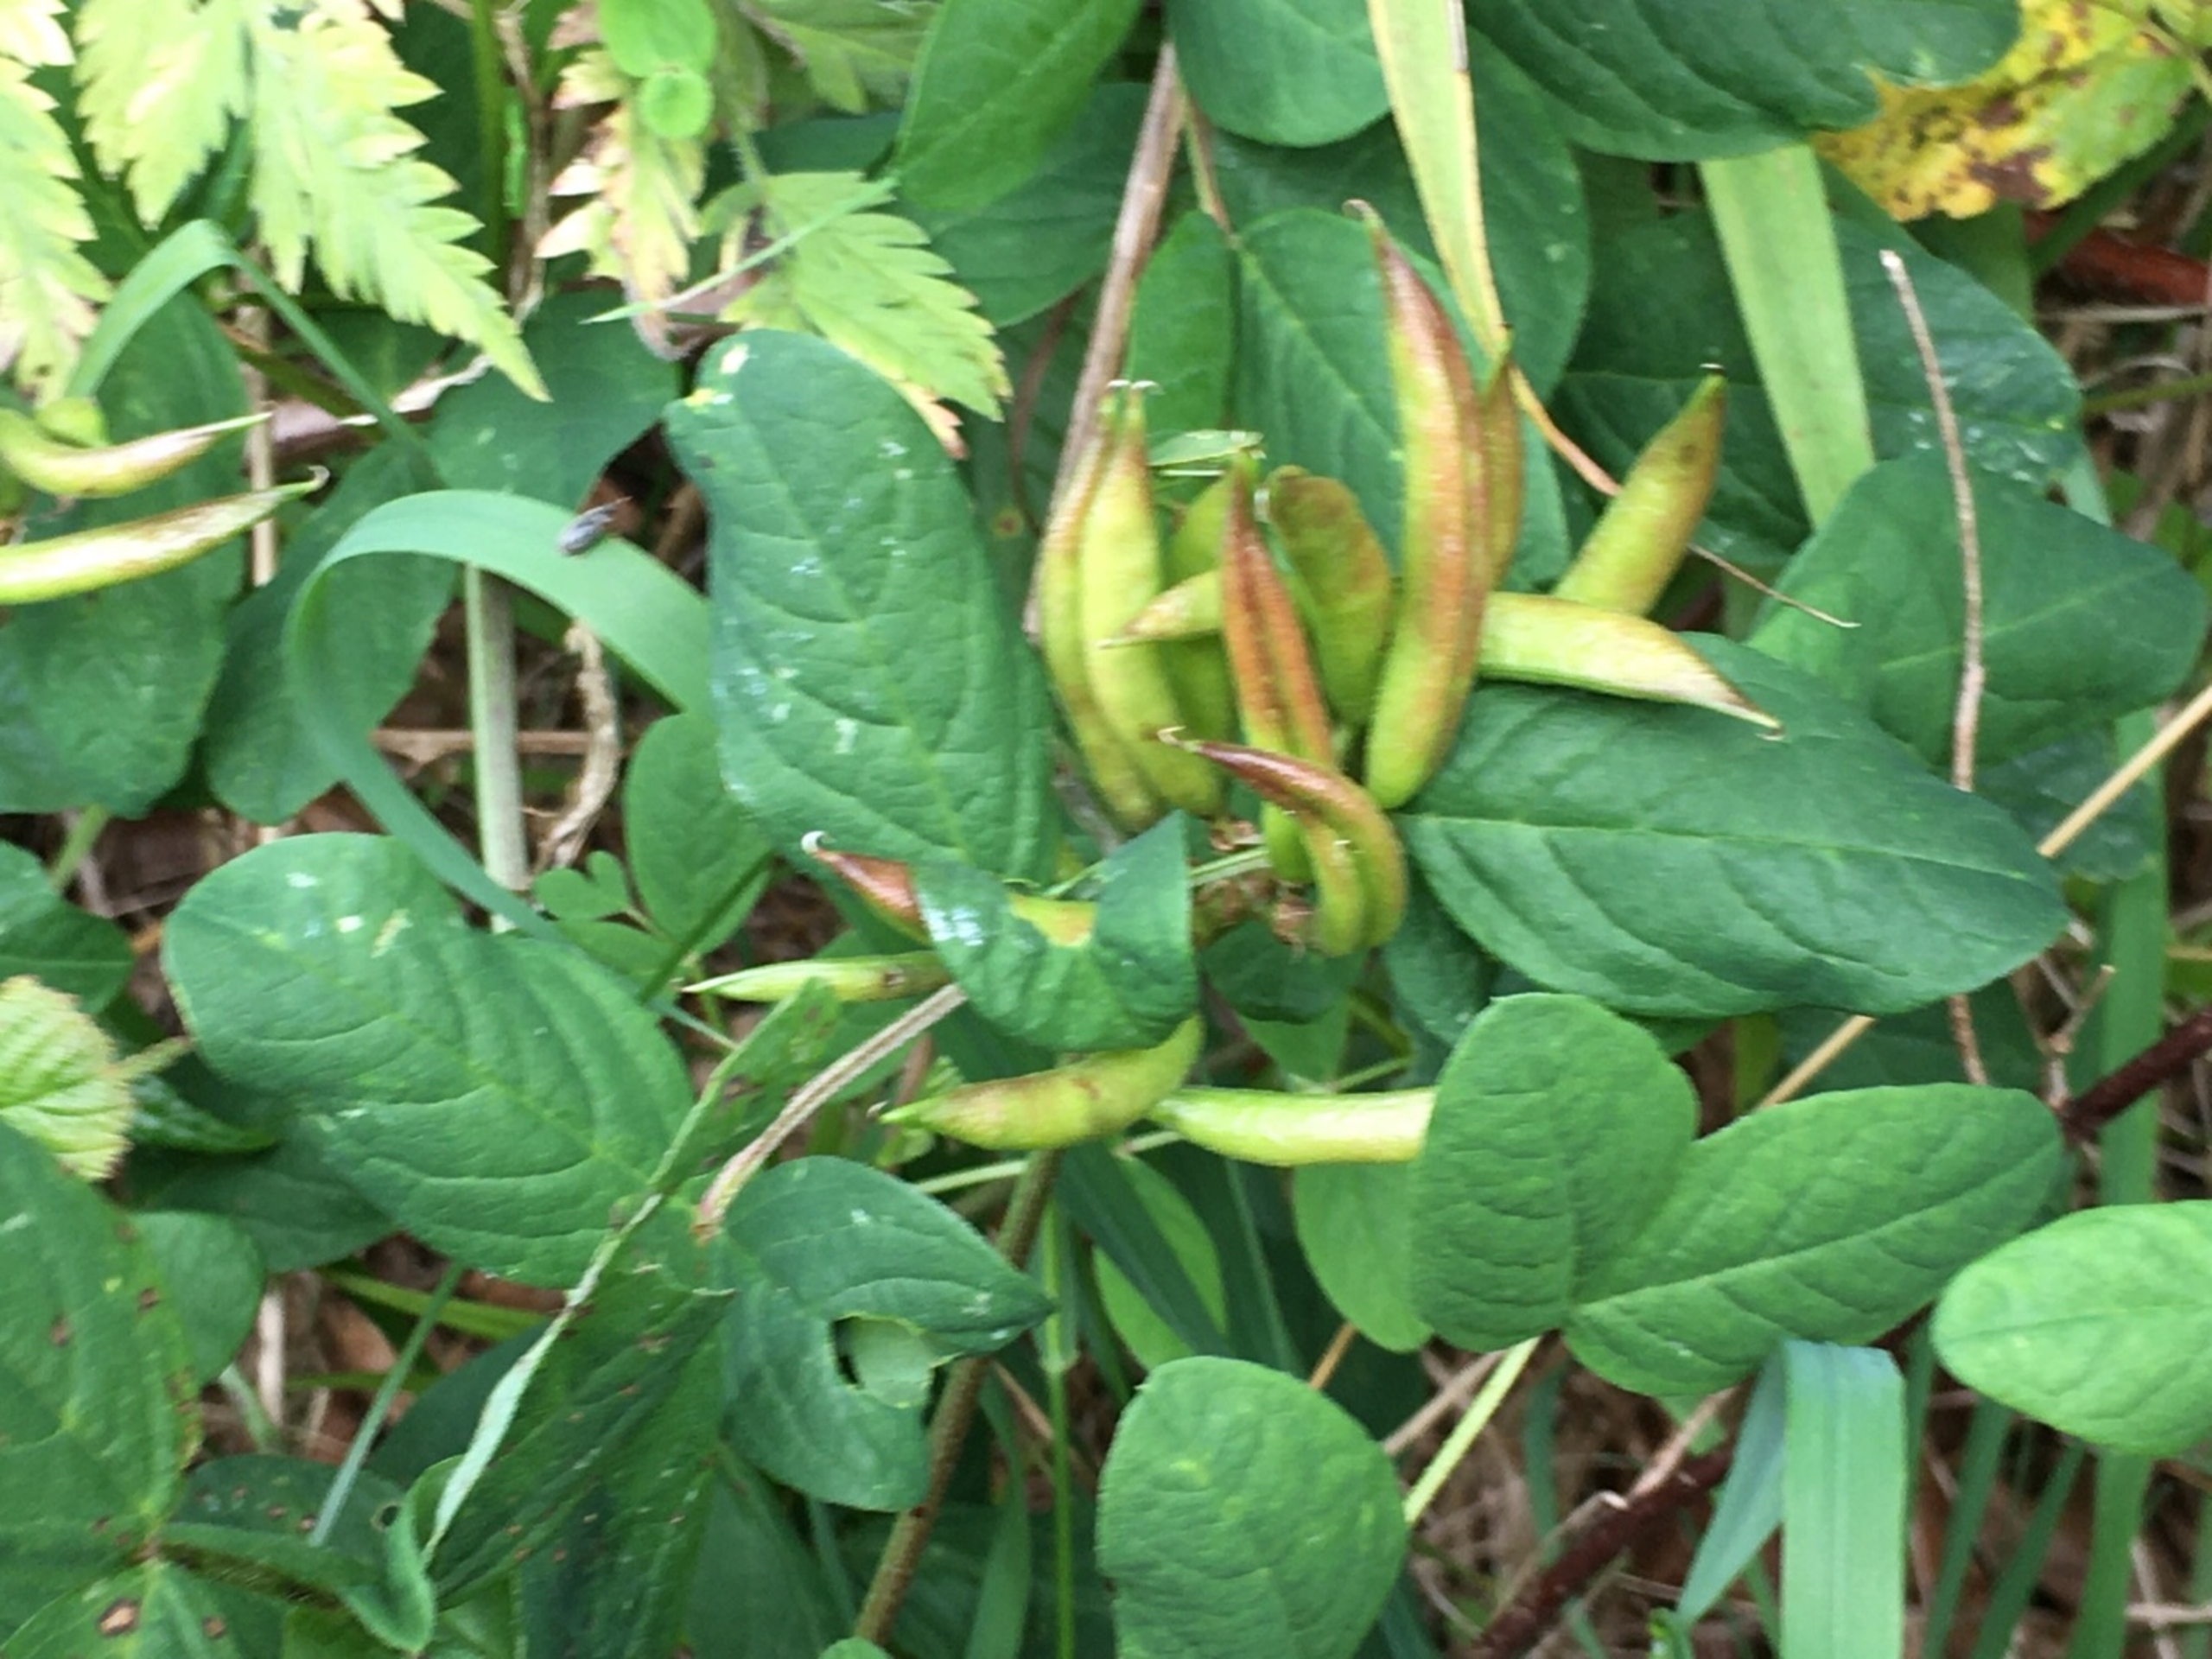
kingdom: Plantae
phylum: Tracheophyta
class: Magnoliopsida
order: Fabales
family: Fabaceae
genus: Astragalus
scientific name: Astragalus glycyphyllos
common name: Sød astragel
